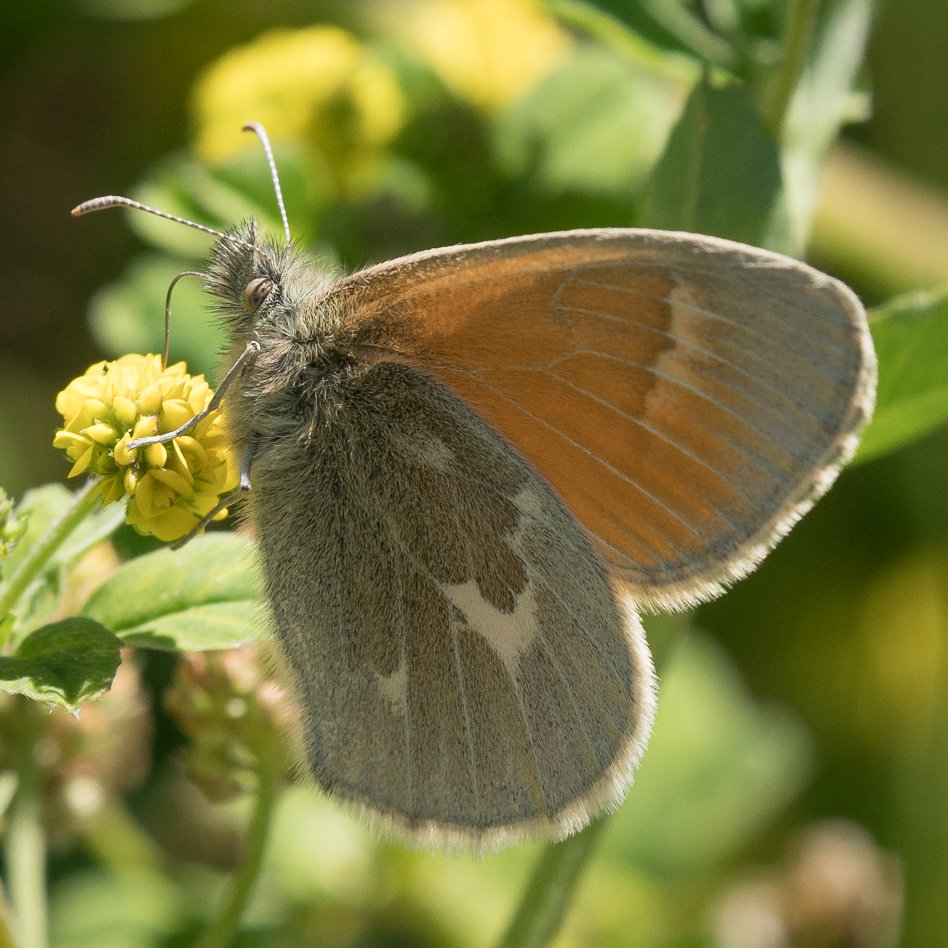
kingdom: Animalia
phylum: Arthropoda
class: Insecta
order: Lepidoptera
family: Nymphalidae
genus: Coenonympha
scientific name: Coenonympha tullia
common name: Large Heath
